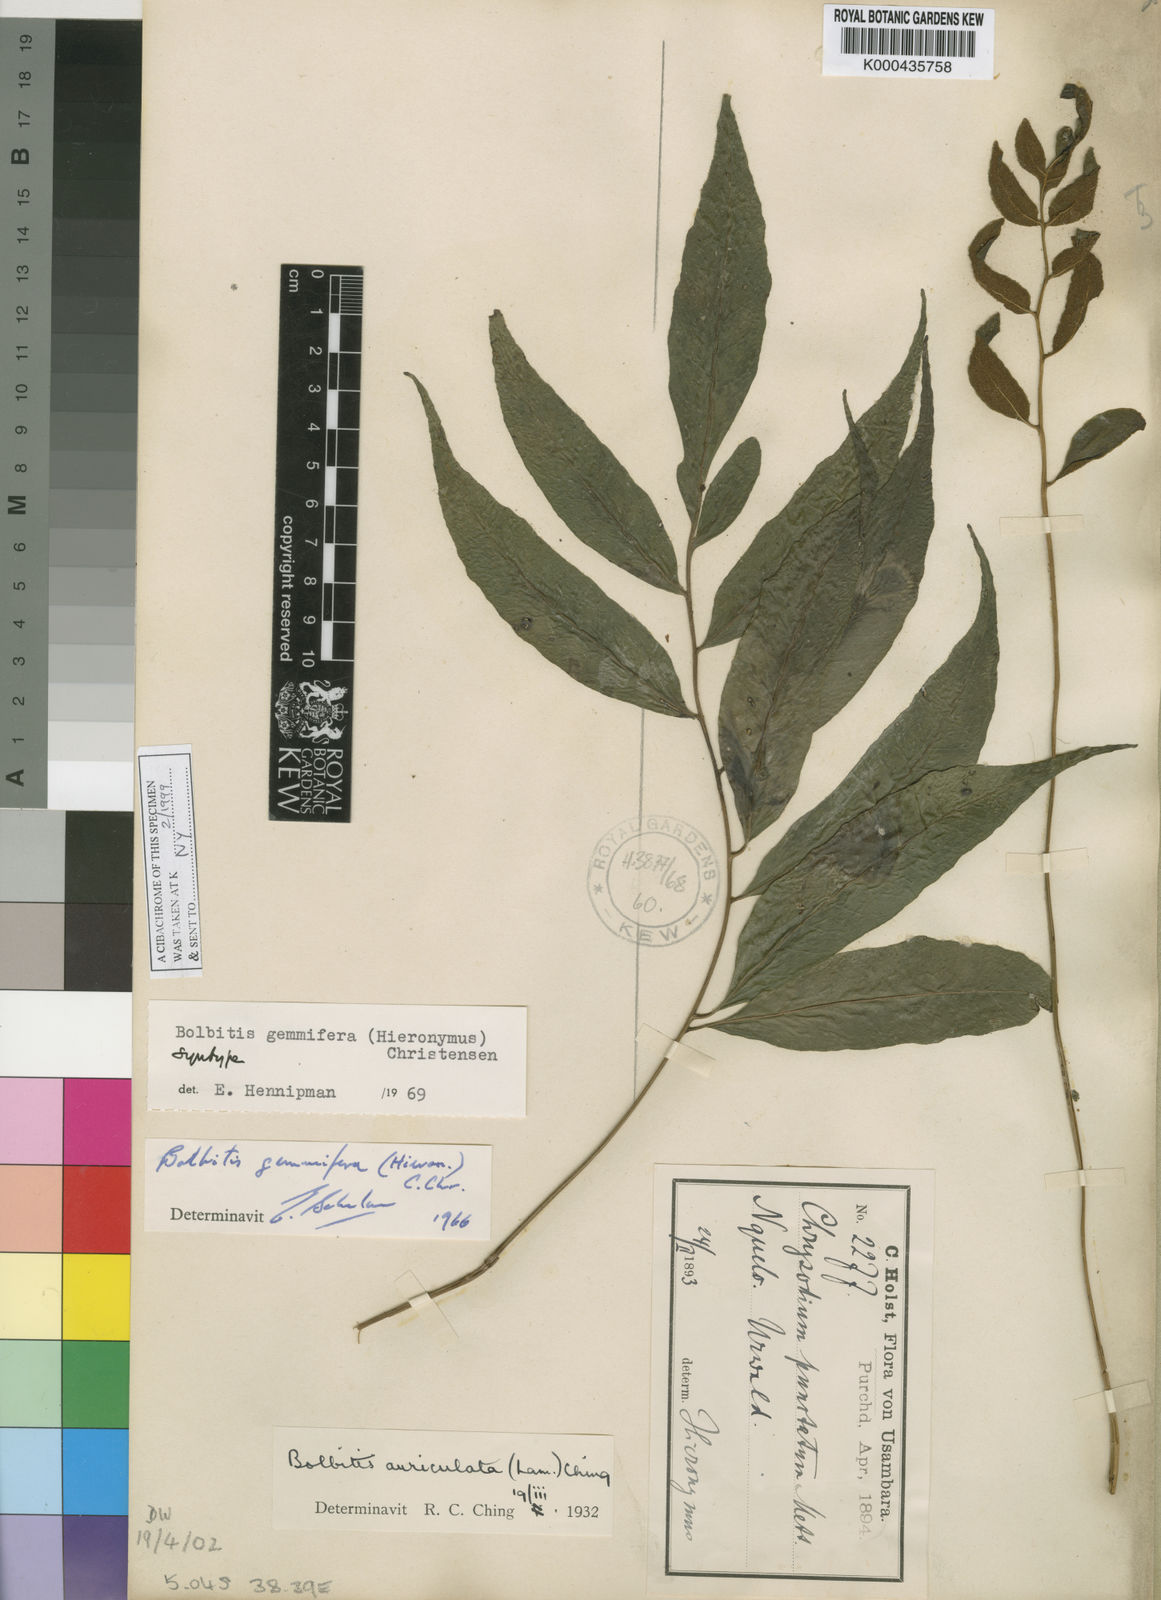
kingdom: Plantae
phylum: Tracheophyta
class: Polypodiopsida
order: Polypodiales
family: Dryopteridaceae
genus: Bolbitis
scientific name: Bolbitis
